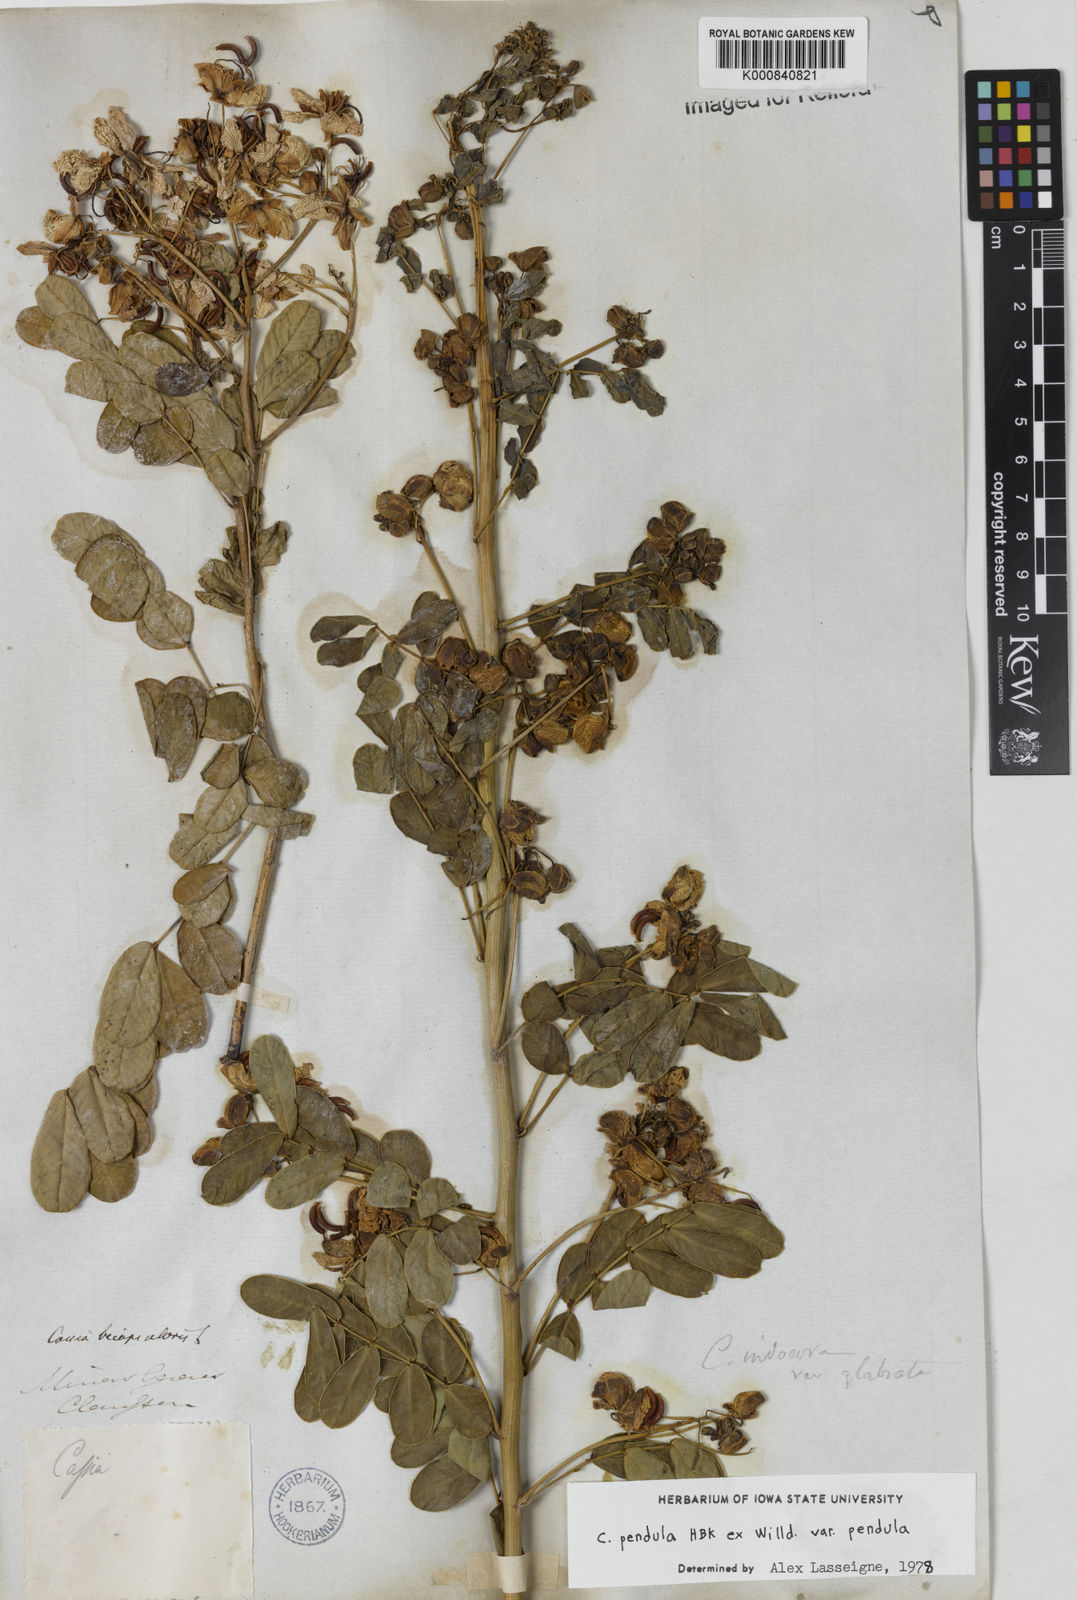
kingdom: Plantae
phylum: Tracheophyta
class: Magnoliopsida
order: Fabales
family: Fabaceae
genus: Senna
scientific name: Senna pendula
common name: Easter cassia
